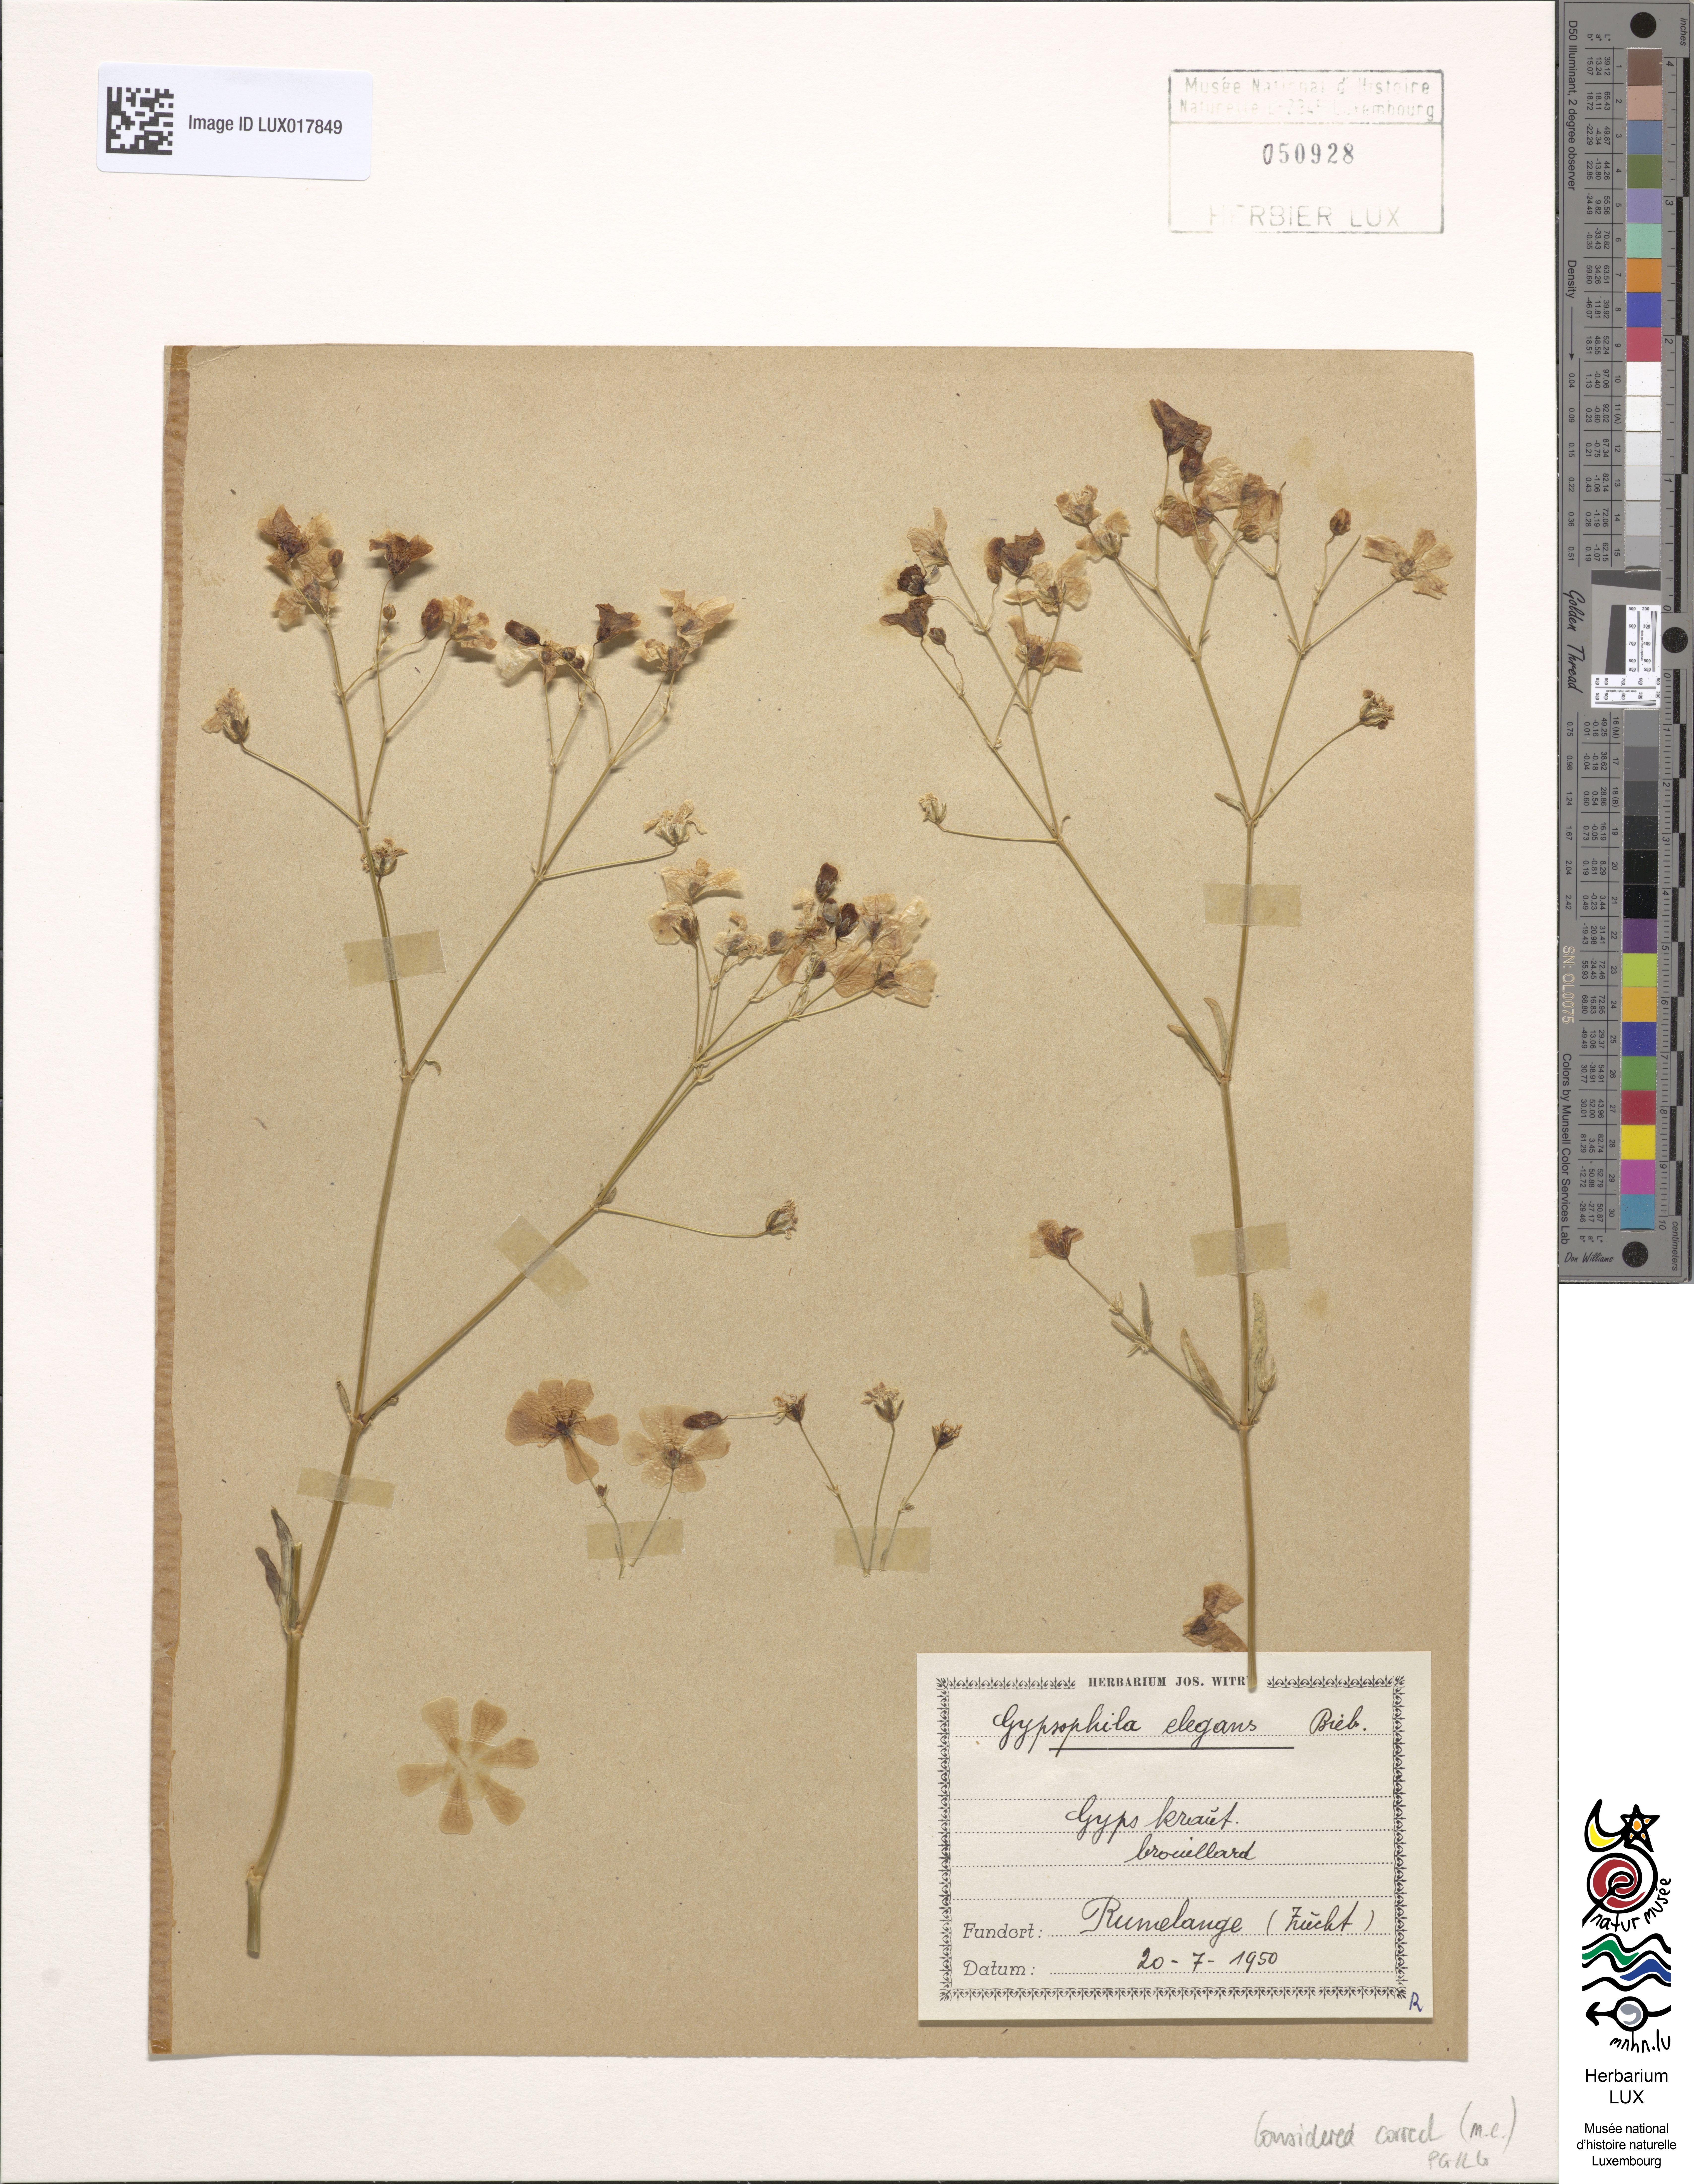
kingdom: Plantae
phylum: Tracheophyta
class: Magnoliopsida
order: Caryophyllales
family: Caryophyllaceae
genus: Gypsophila
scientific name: Gypsophila elegans
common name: Showy baby's-breath
